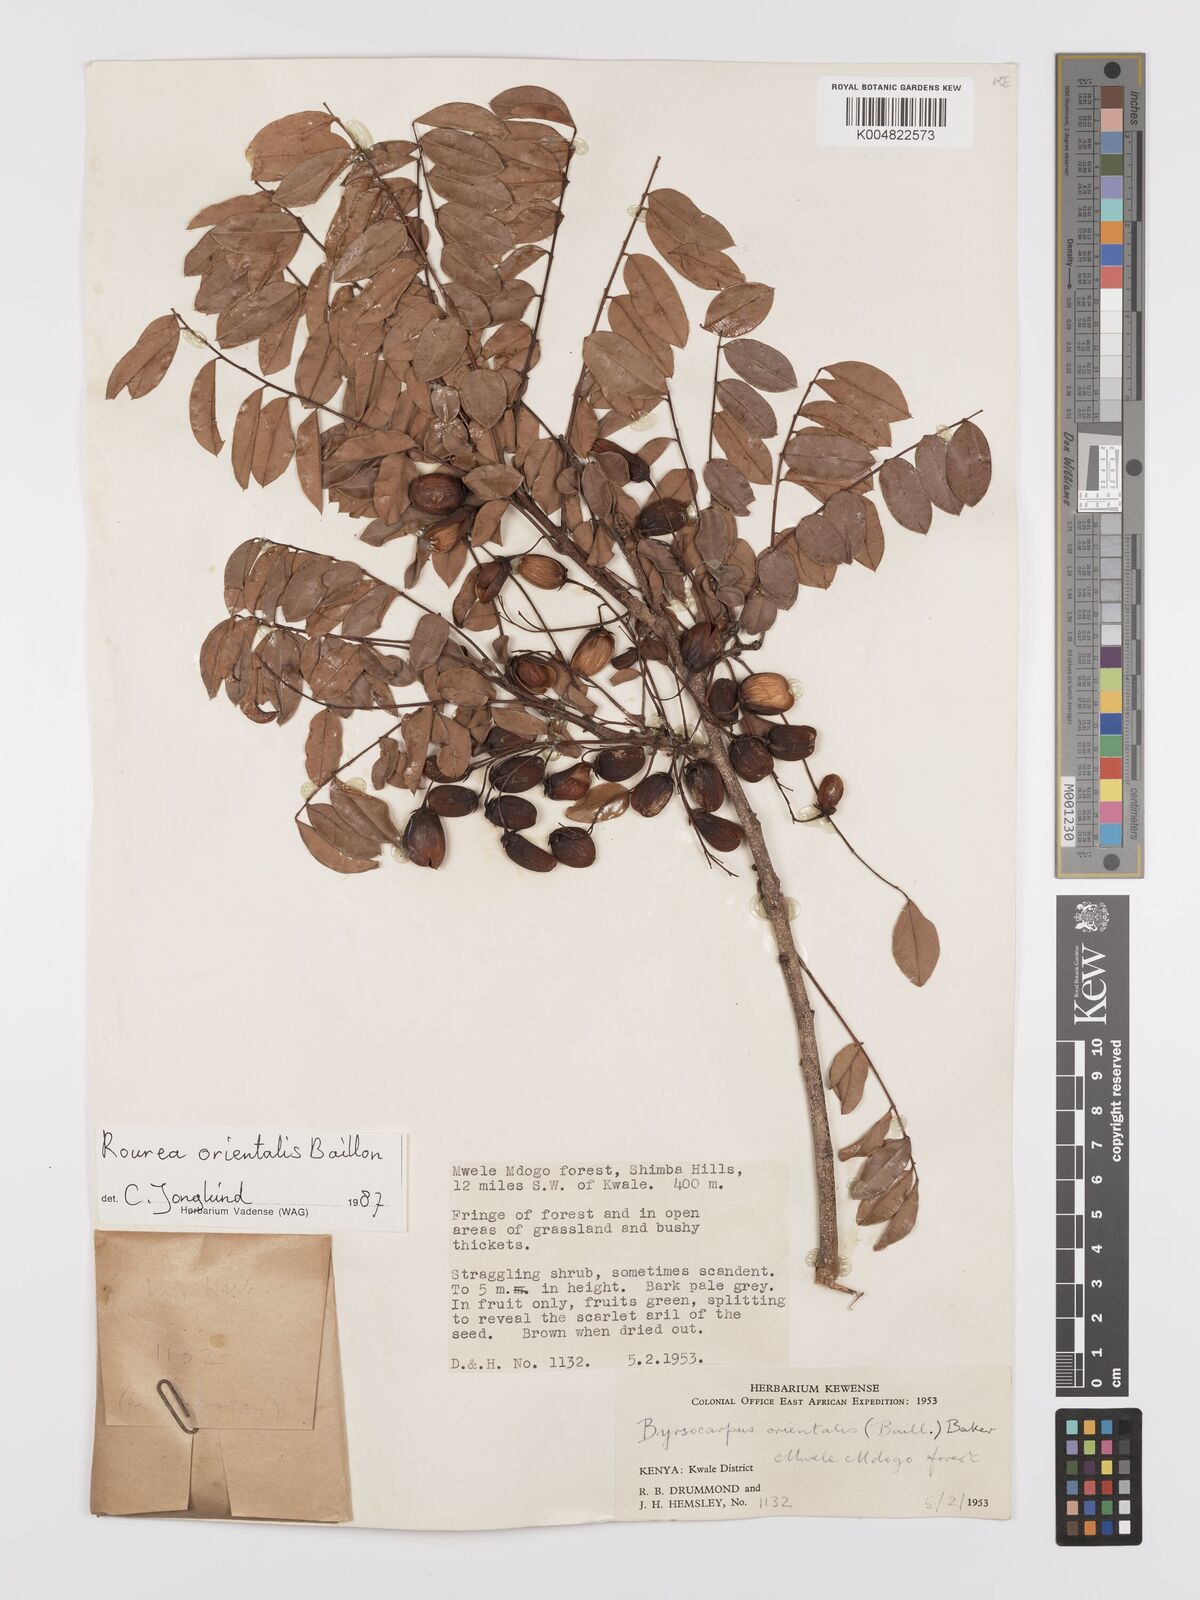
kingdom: Plantae
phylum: Tracheophyta
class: Magnoliopsida
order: Oxalidales
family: Connaraceae
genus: Rourea
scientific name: Rourea orientalis
